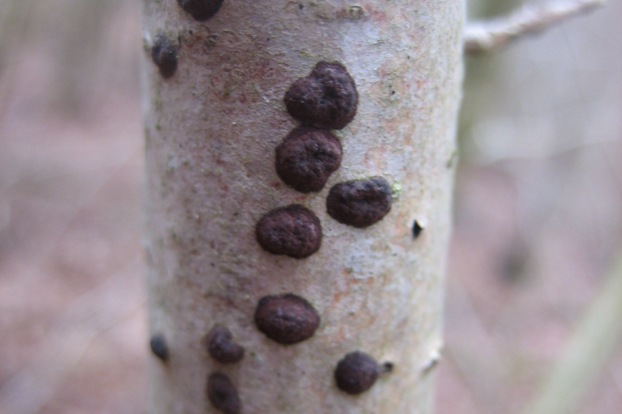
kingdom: Fungi
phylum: Ascomycota
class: Sordariomycetes
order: Xylariales
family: Hypoxylaceae
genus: Hypoxylon
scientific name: Hypoxylon fuscum
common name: kegleformet kulbær
